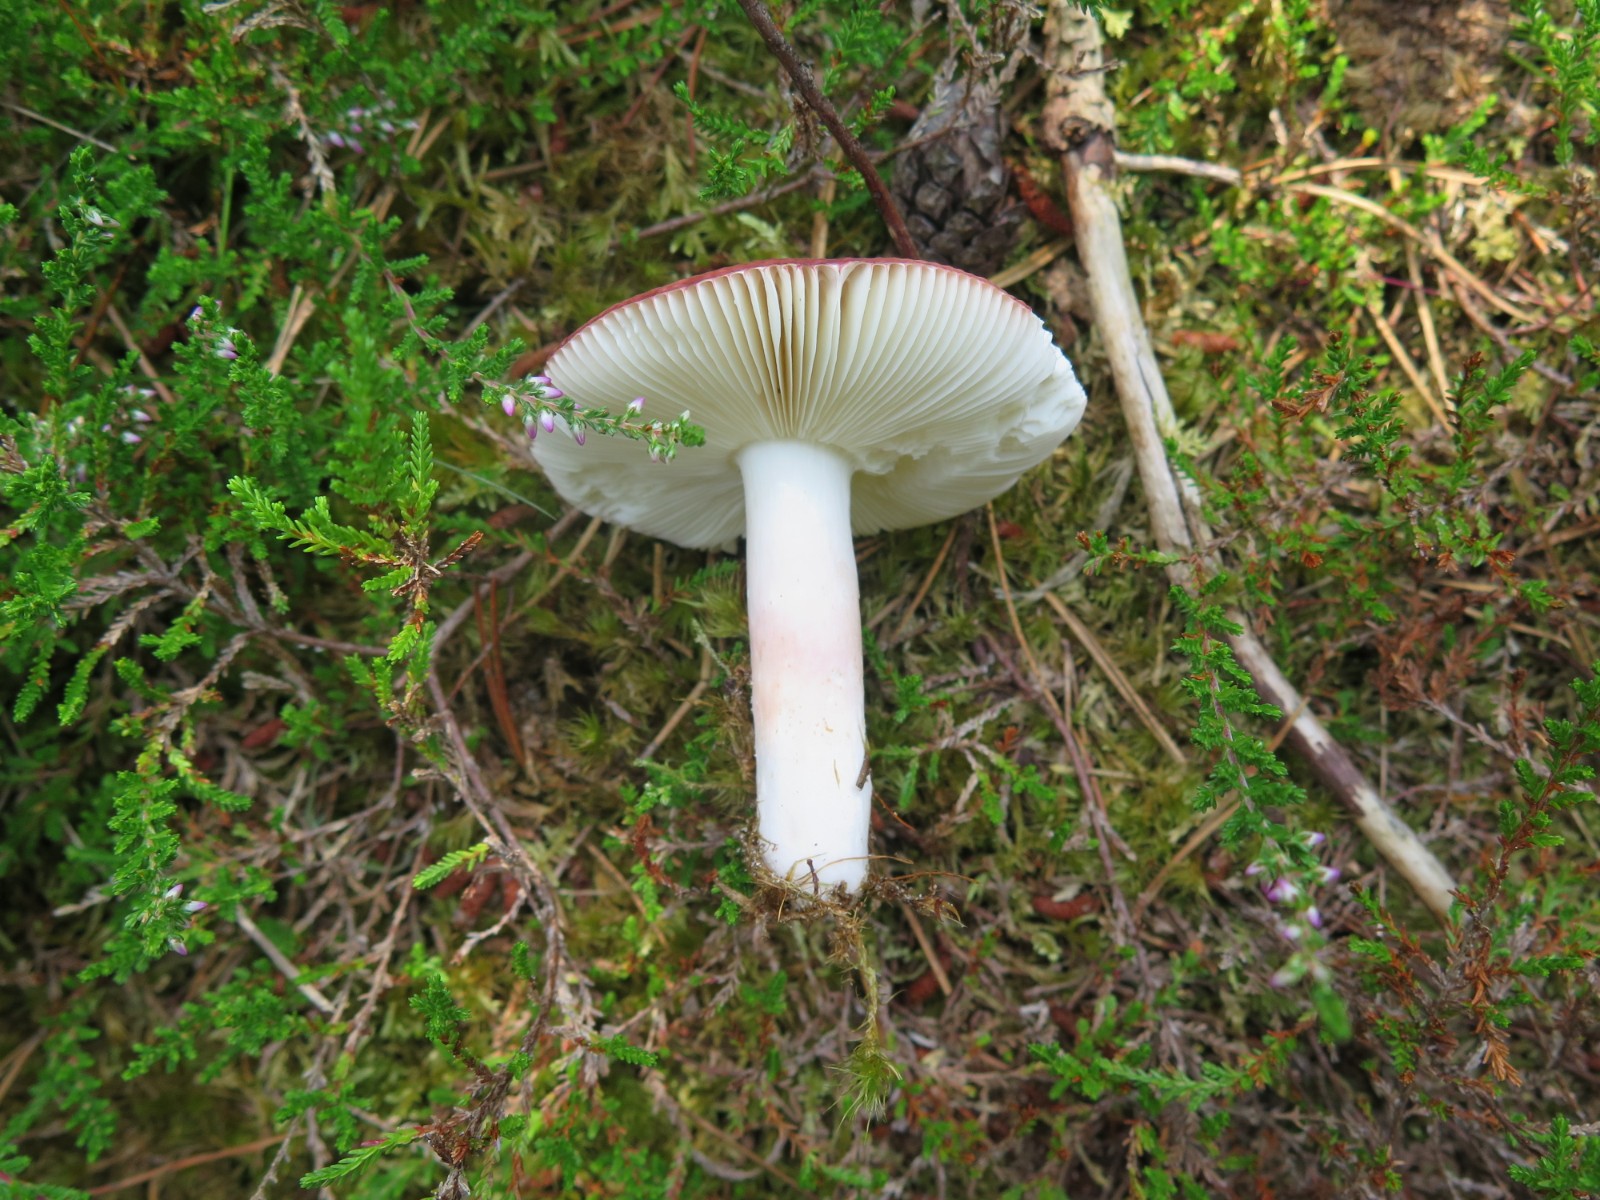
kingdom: Fungi
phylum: Basidiomycota
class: Agaricomycetes
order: Russulales
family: Russulaceae
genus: Russula
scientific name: Russula rosea
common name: fastkødet skørhat
